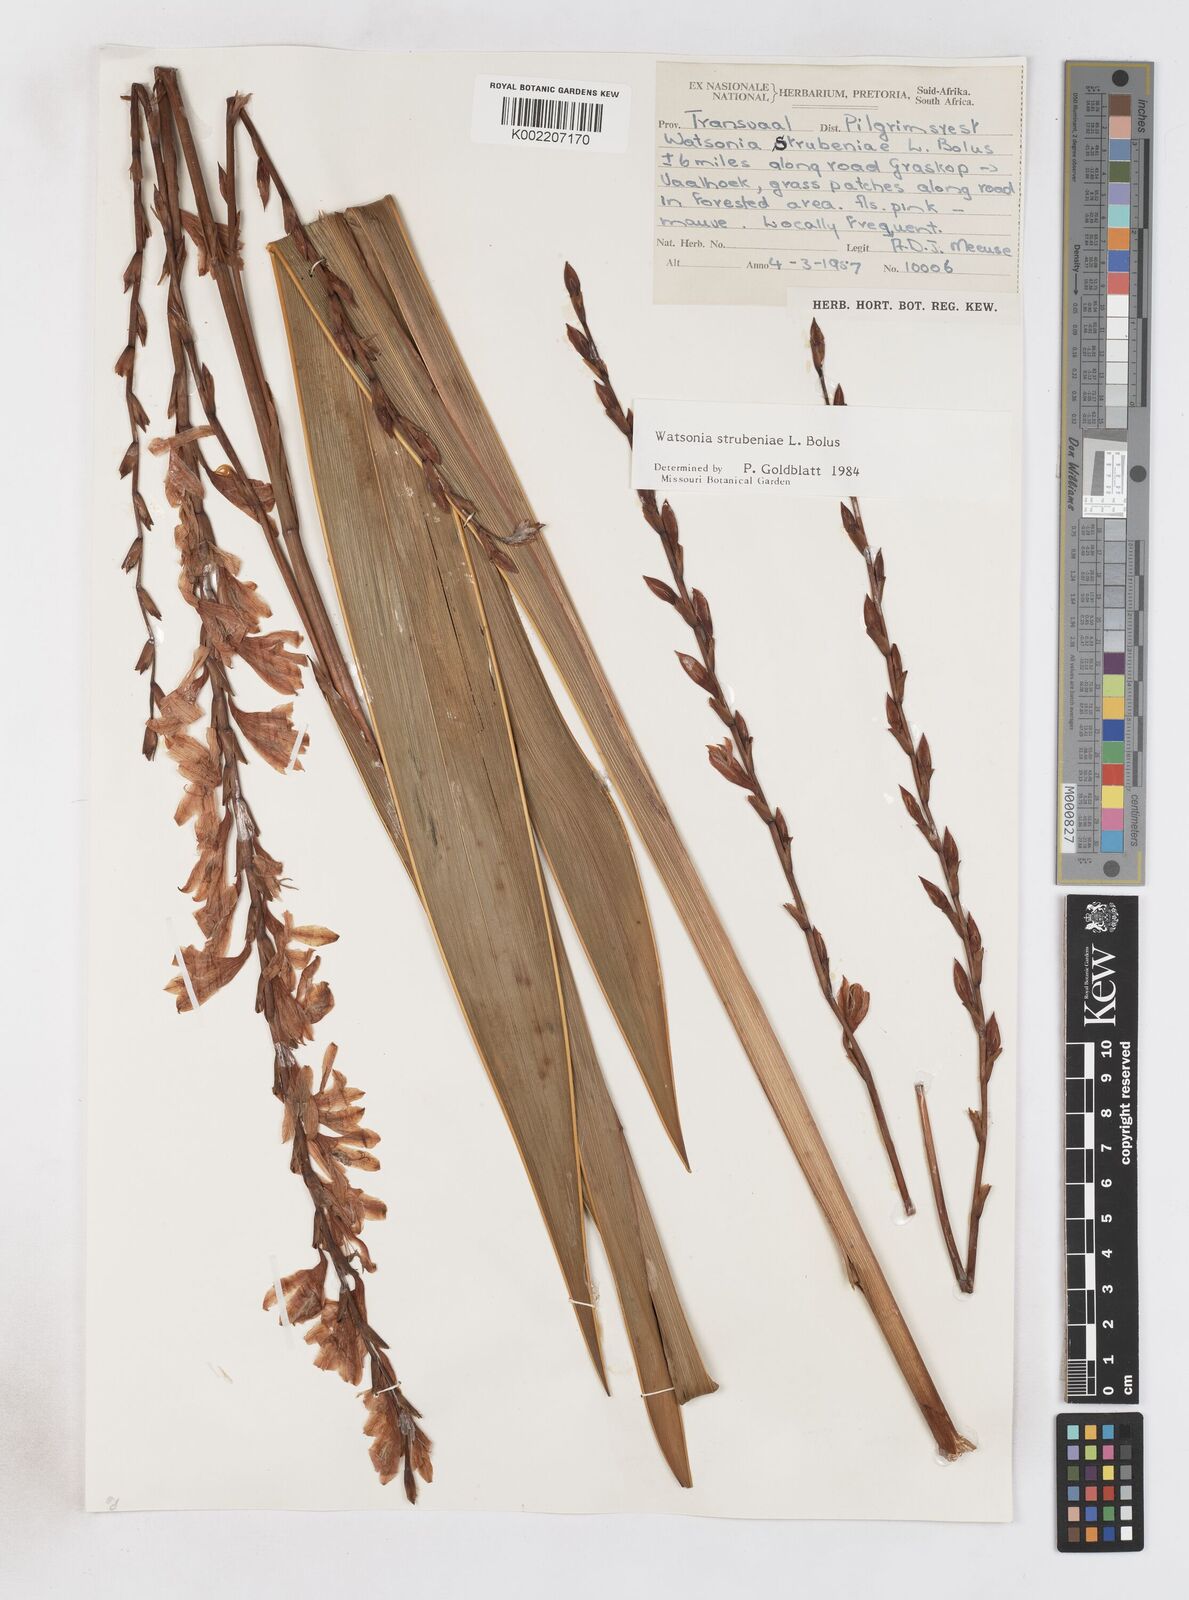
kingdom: Plantae
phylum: Tracheophyta
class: Liliopsida
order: Asparagales
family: Iridaceae
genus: Watsonia
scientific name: Watsonia strubeniae
